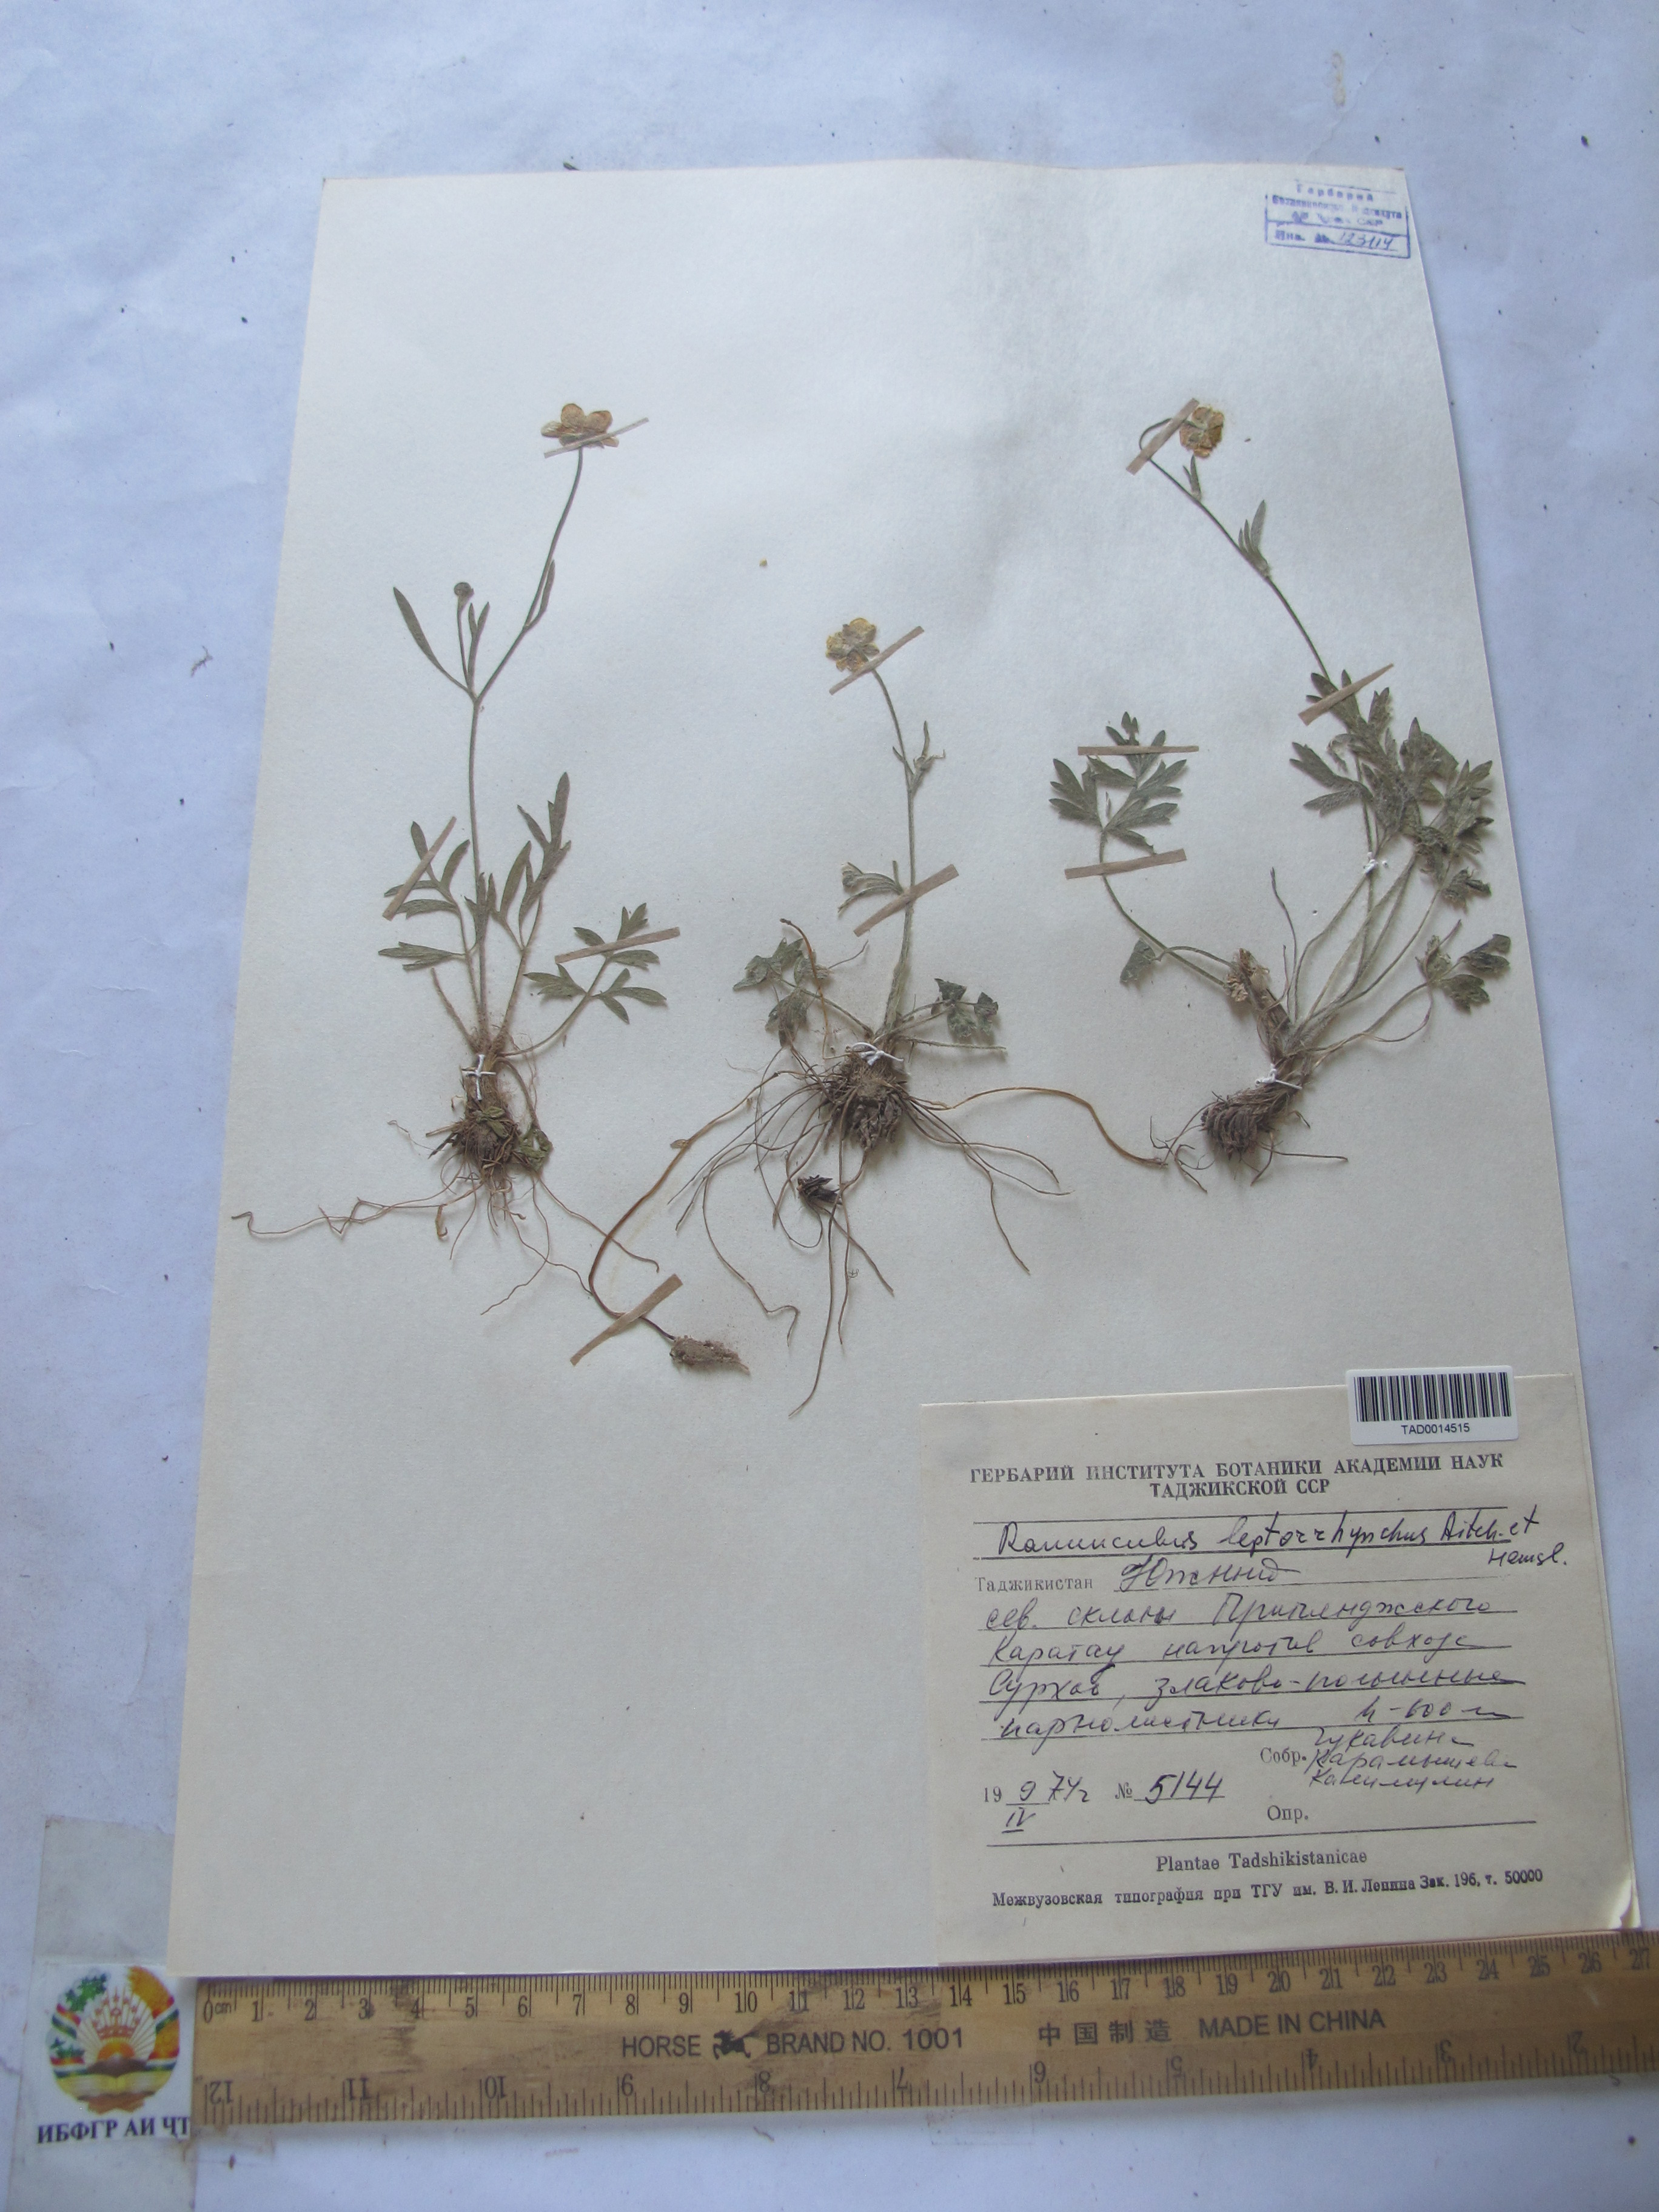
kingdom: Plantae
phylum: Tracheophyta
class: Magnoliopsida
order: Ranunculales
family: Ranunculaceae
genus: Ranunculus
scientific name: Ranunculus leptorrhynchus
